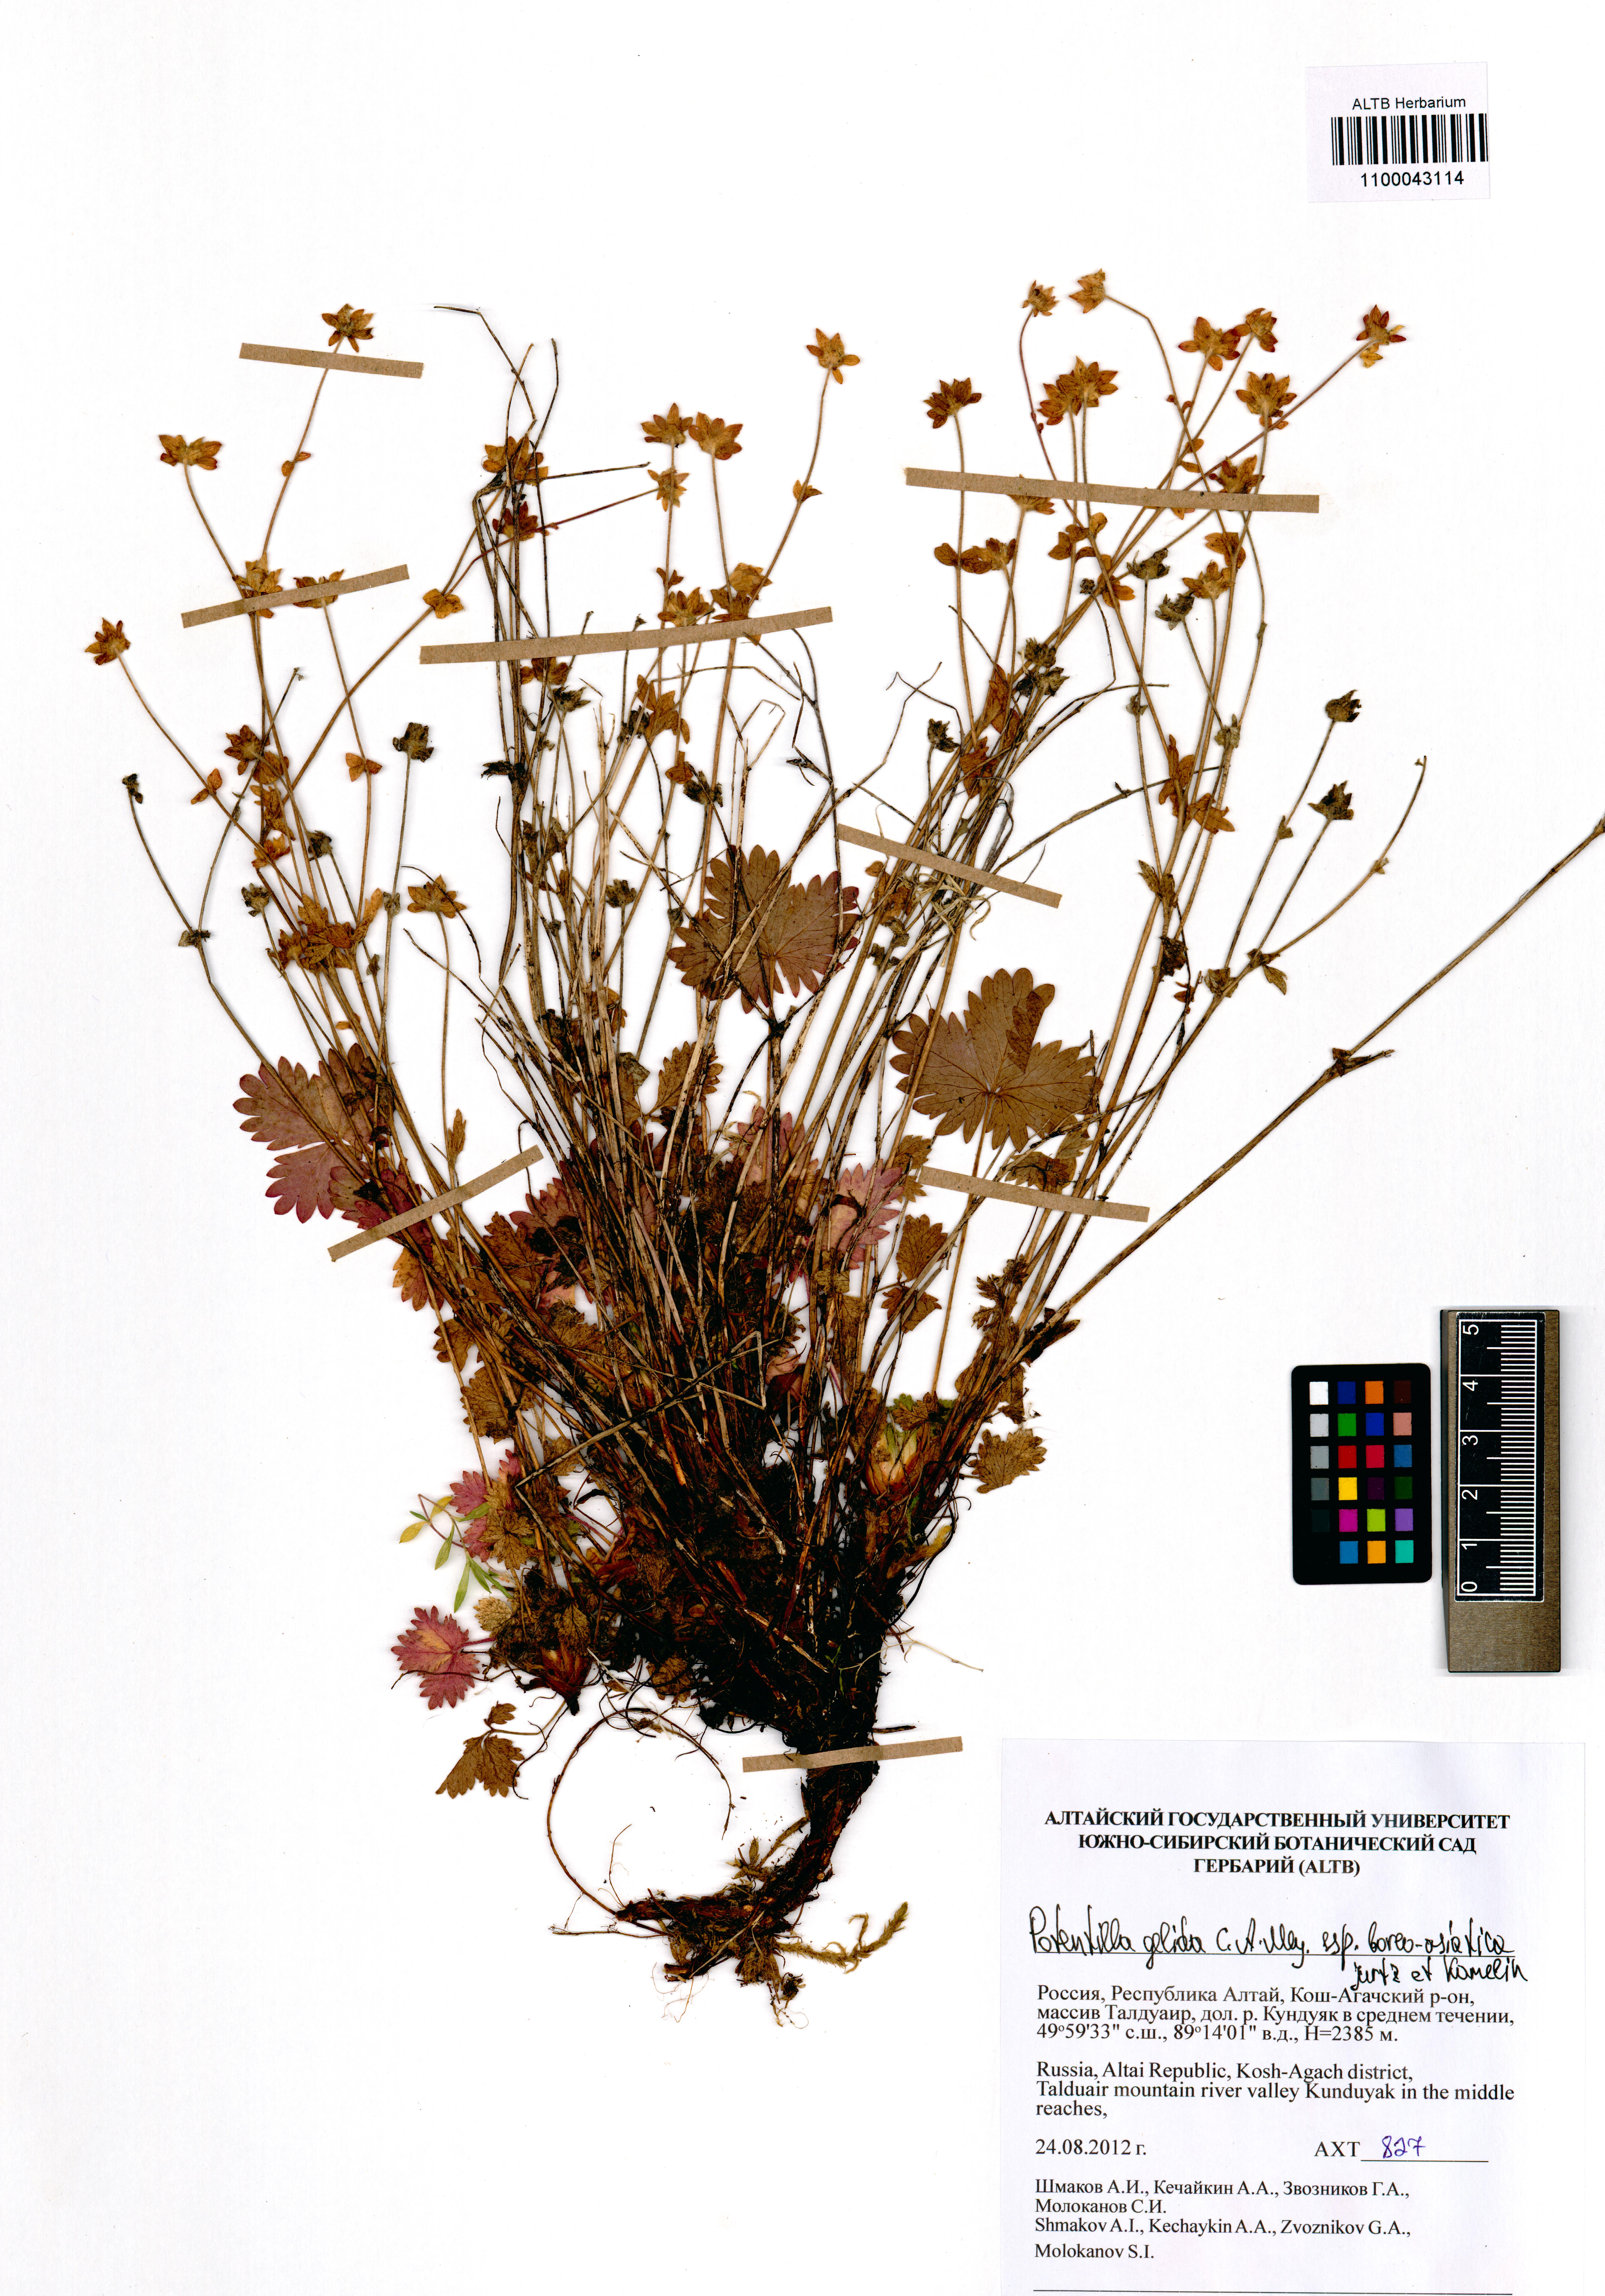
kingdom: Plantae
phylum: Tracheophyta
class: Magnoliopsida
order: Rosales
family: Rosaceae
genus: Potentilla
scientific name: Potentilla crantzii
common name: Alpine cinquefoil
